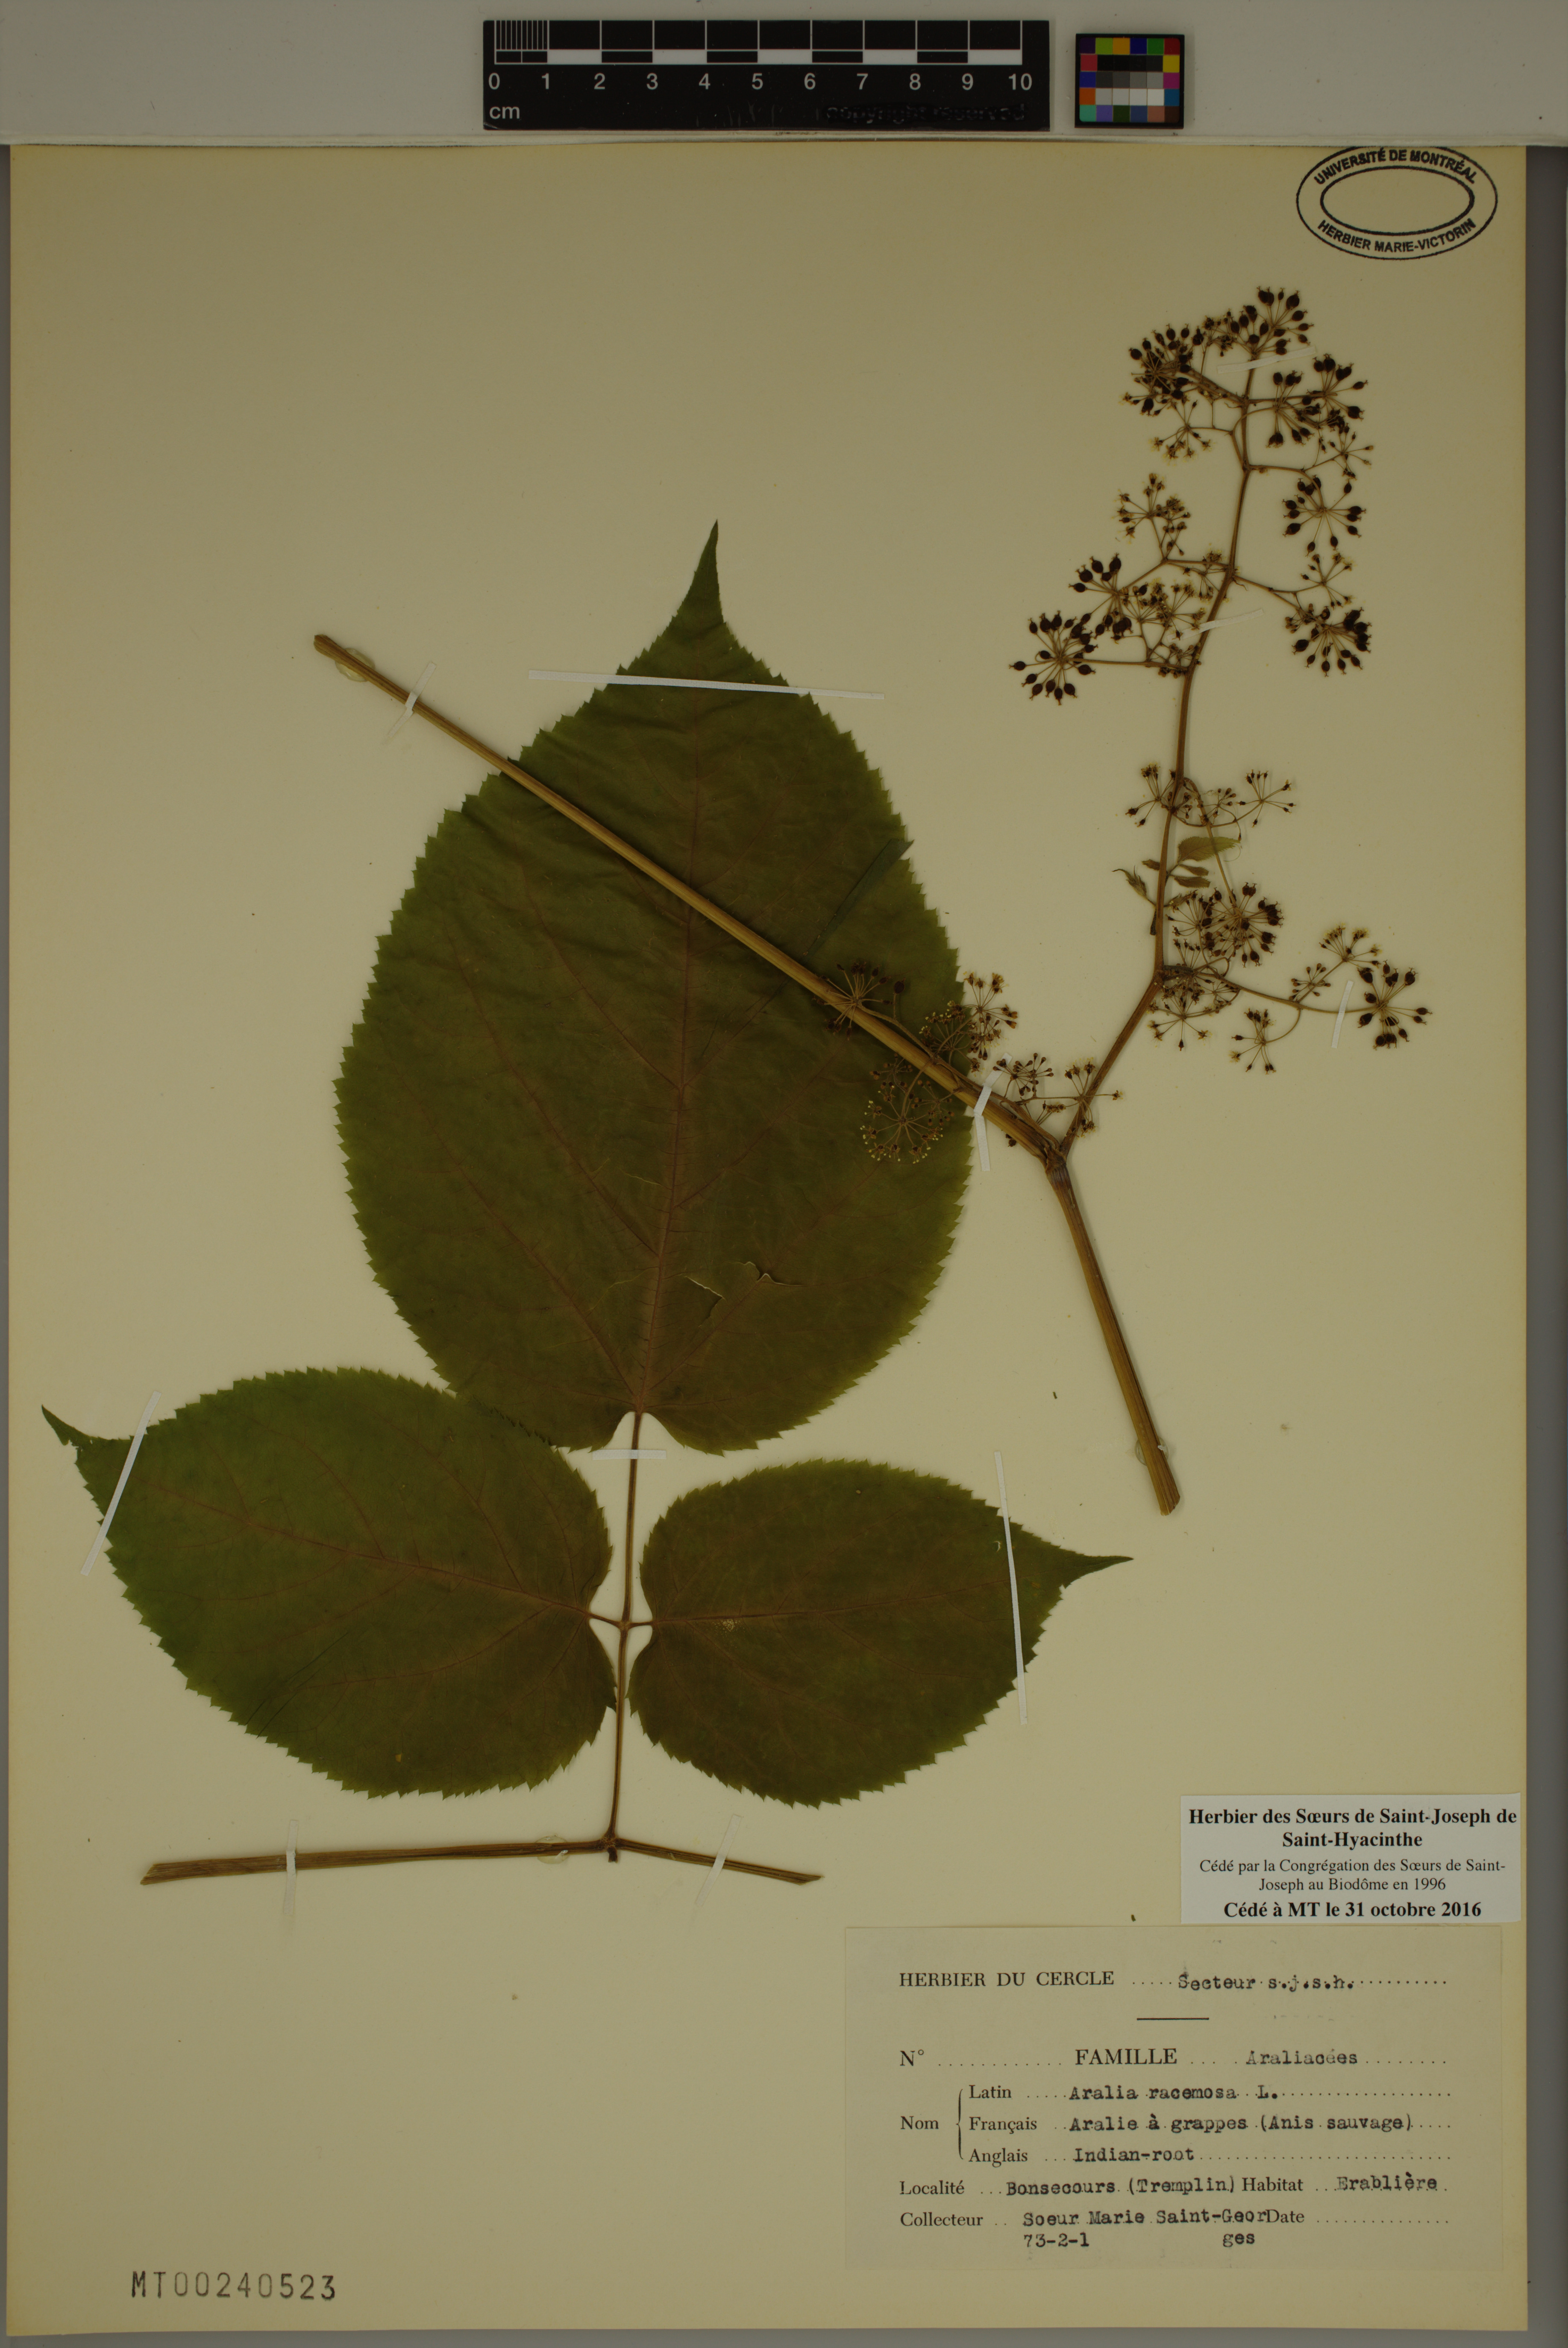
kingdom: Plantae
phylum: Tracheophyta
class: Magnoliopsida
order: Apiales
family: Araliaceae
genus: Aralia
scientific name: Aralia racemosa
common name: American-spikenard
